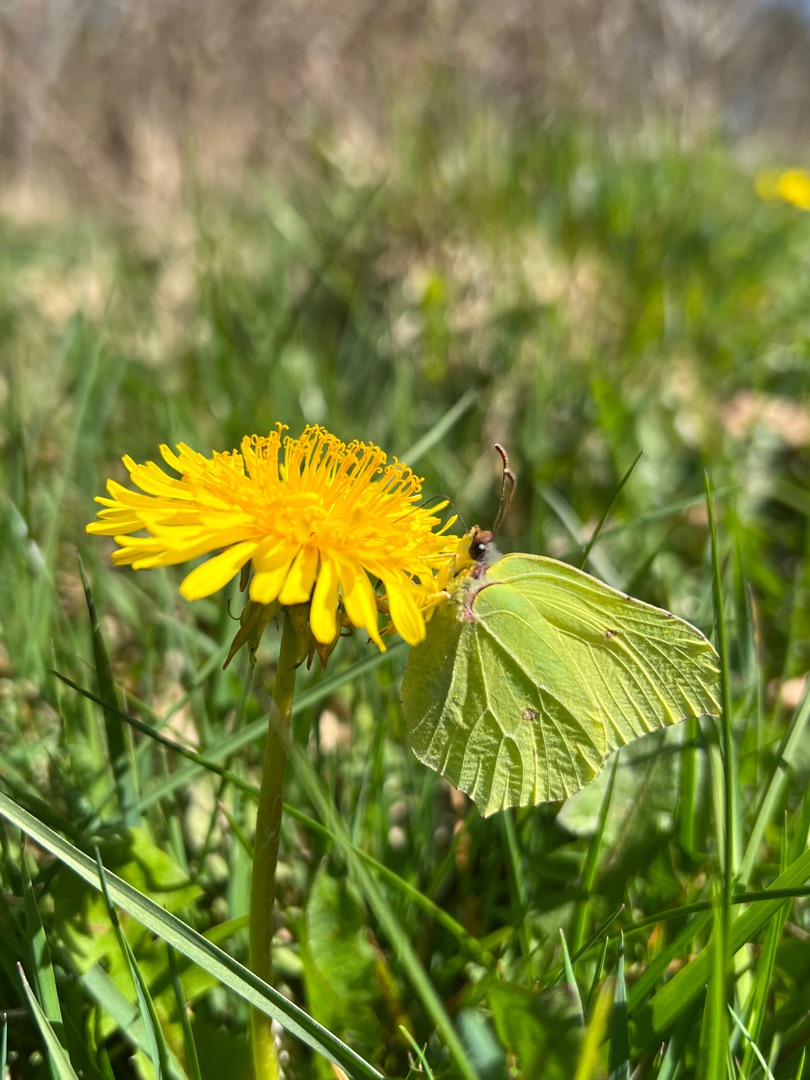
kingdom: Animalia
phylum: Arthropoda
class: Insecta
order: Lepidoptera
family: Pieridae
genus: Gonepteryx
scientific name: Gonepteryx rhamni
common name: Citronsommerfugl
